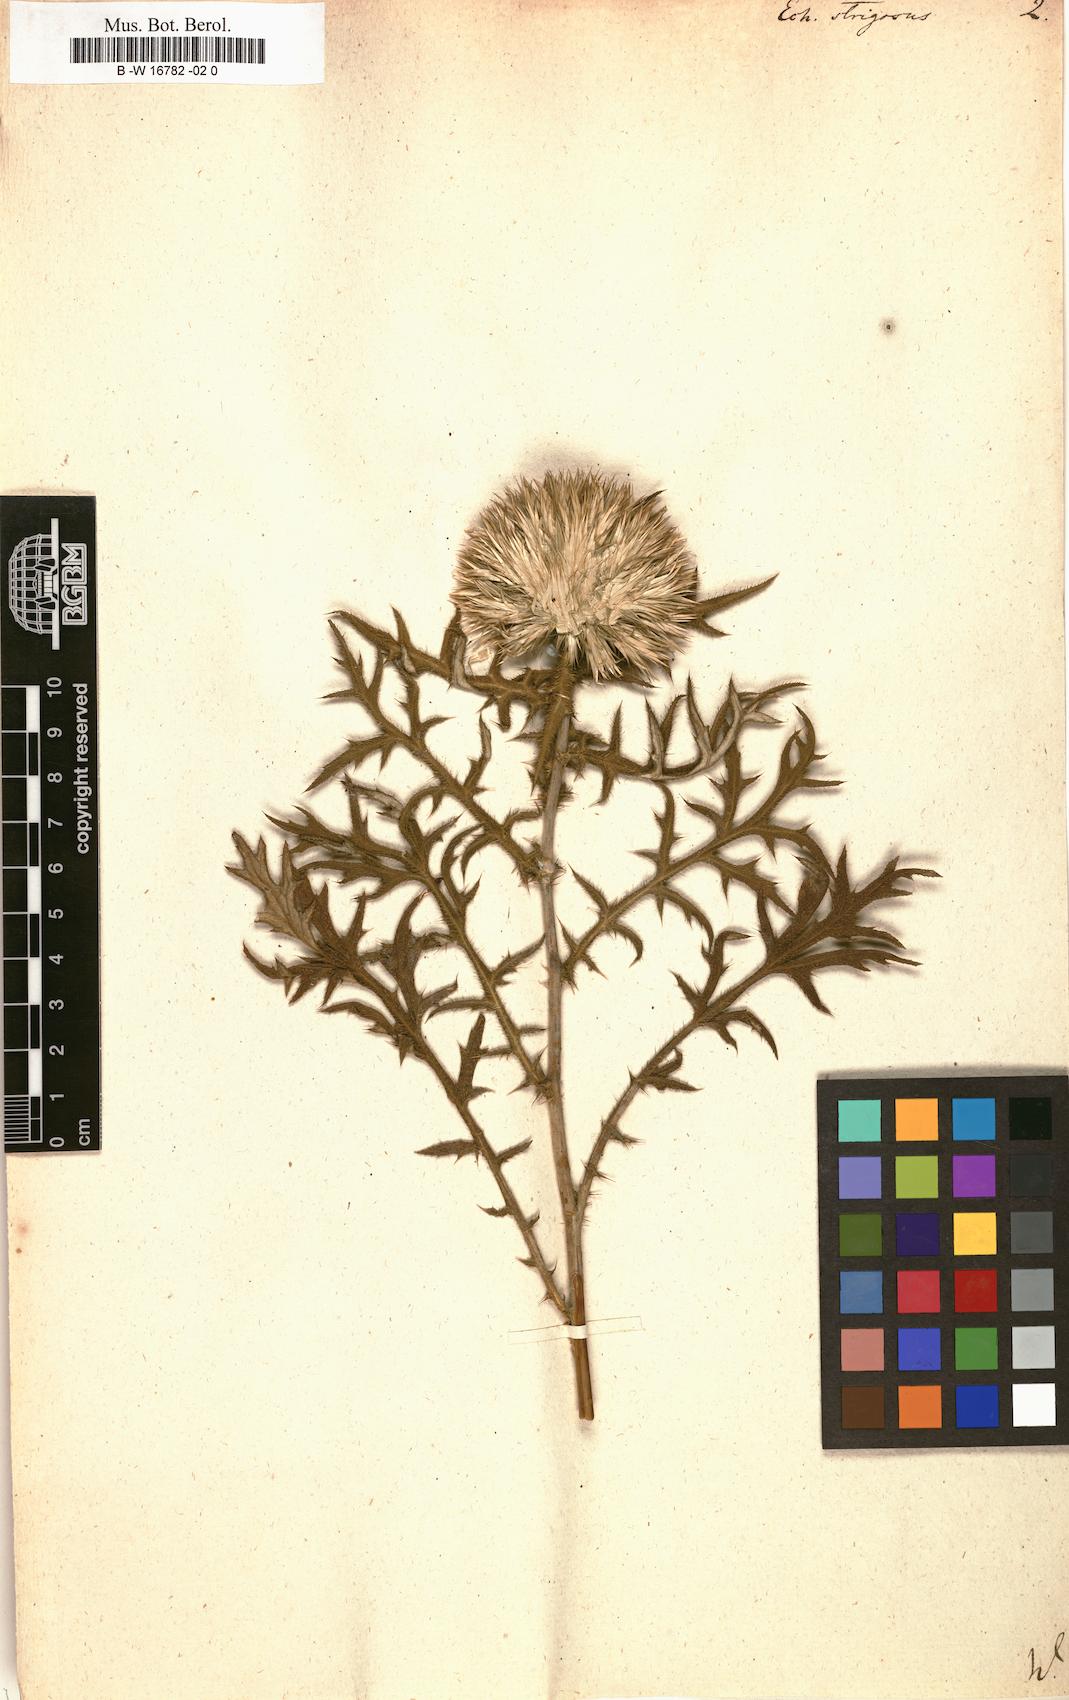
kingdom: Plantae
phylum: Tracheophyta
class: Magnoliopsida
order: Asterales
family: Asteraceae
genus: Echinops
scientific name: Echinops strigosus
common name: Rough-leaf globe thistle
